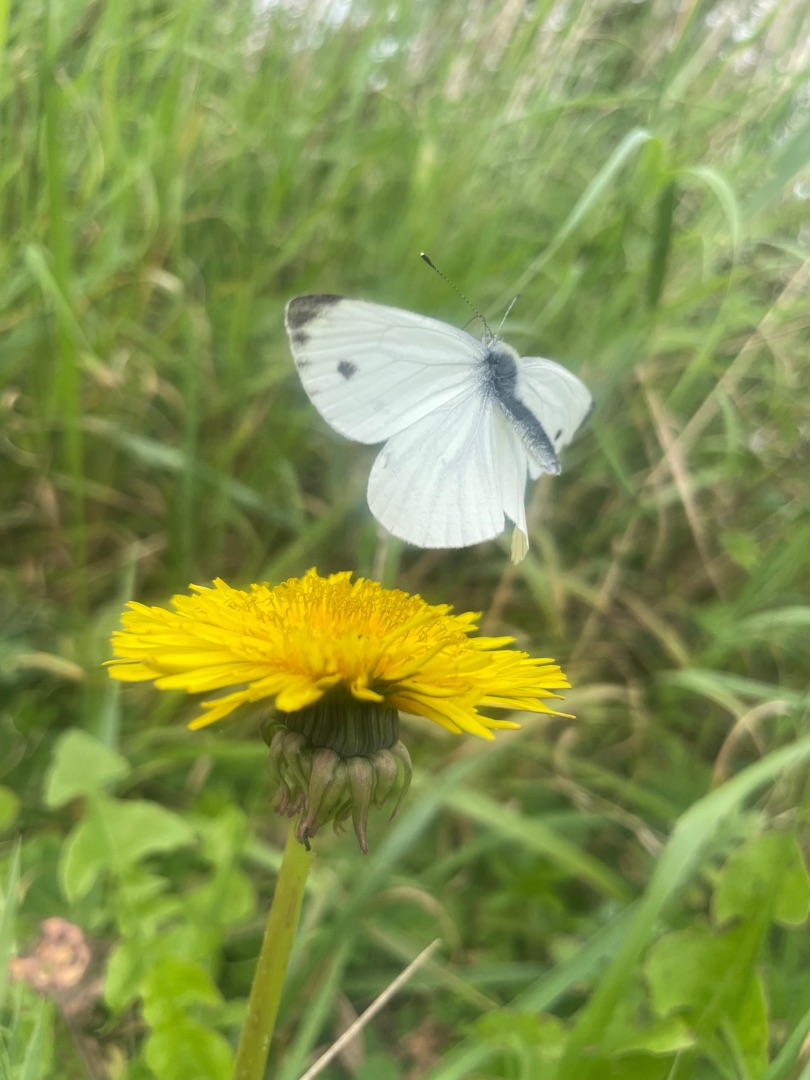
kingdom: Animalia
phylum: Arthropoda
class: Insecta
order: Lepidoptera
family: Pieridae
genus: Pieris
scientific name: Pieris napi
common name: Grønåret kålsommerfugl
